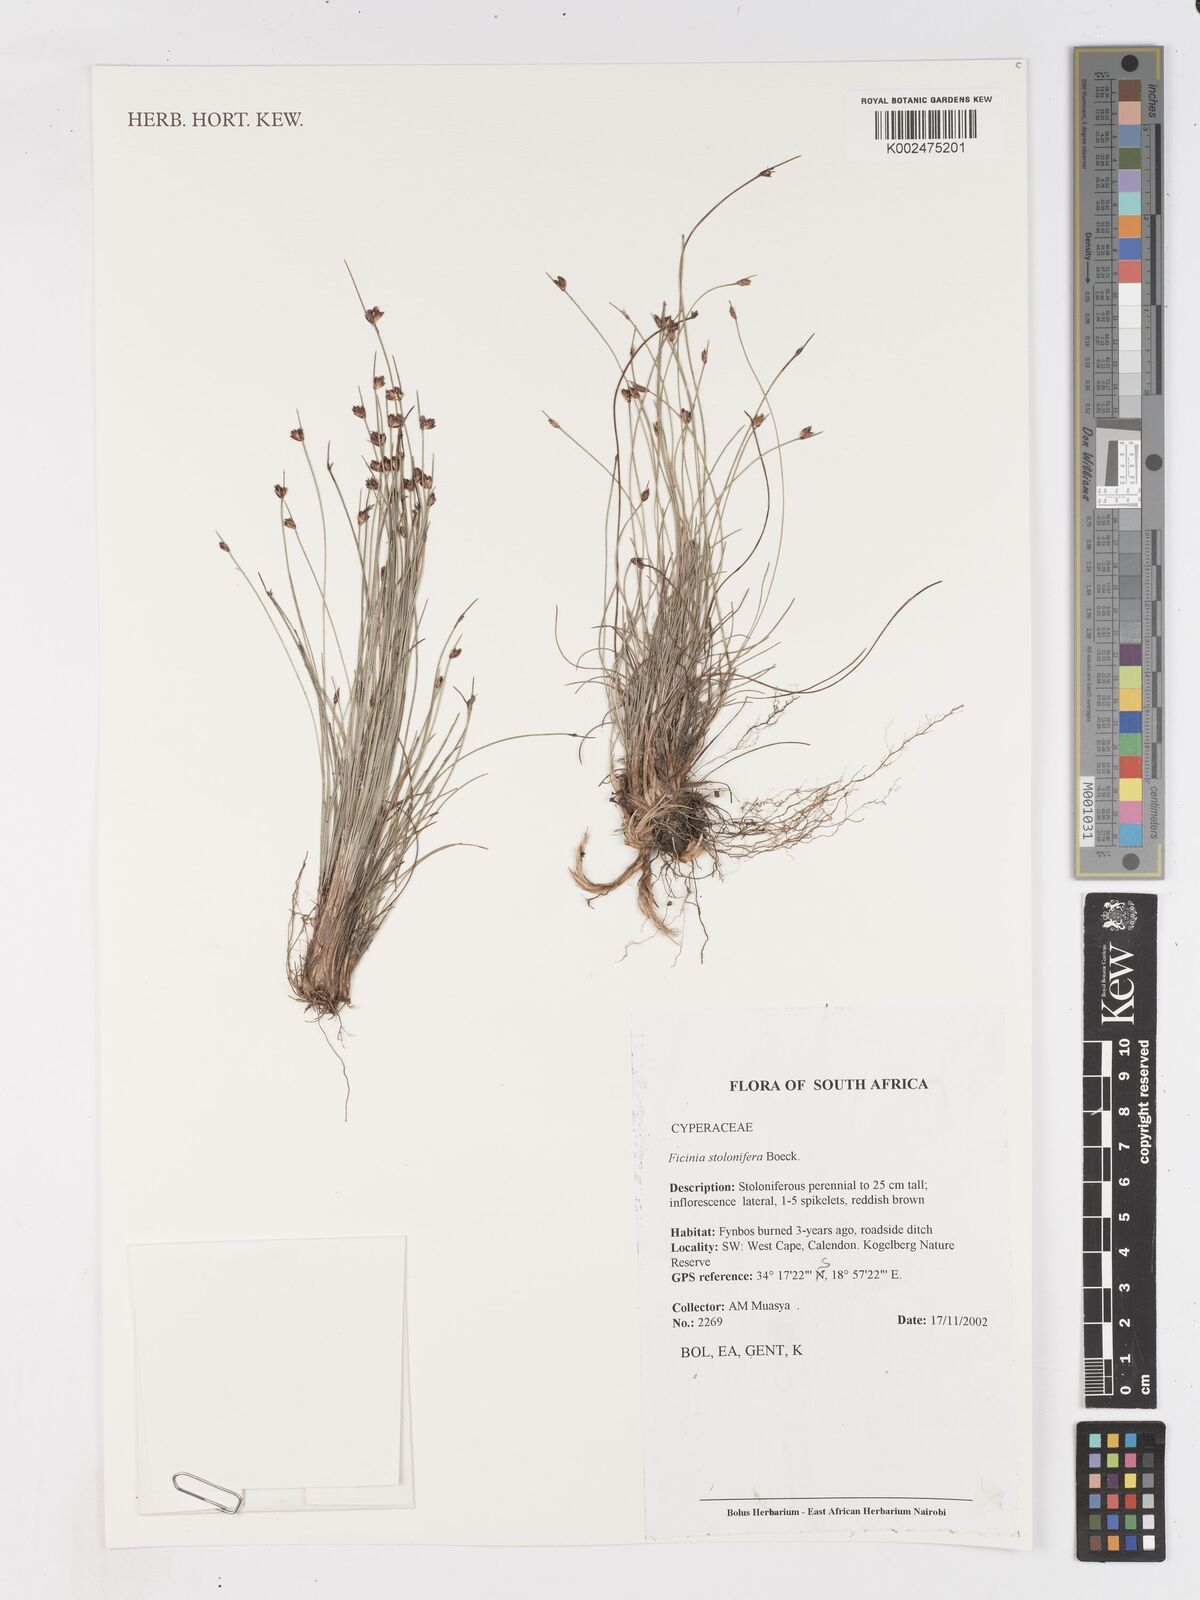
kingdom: Plantae
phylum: Tracheophyta
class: Liliopsida
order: Poales
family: Cyperaceae
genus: Ficinia
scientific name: Ficinia stolonifera
